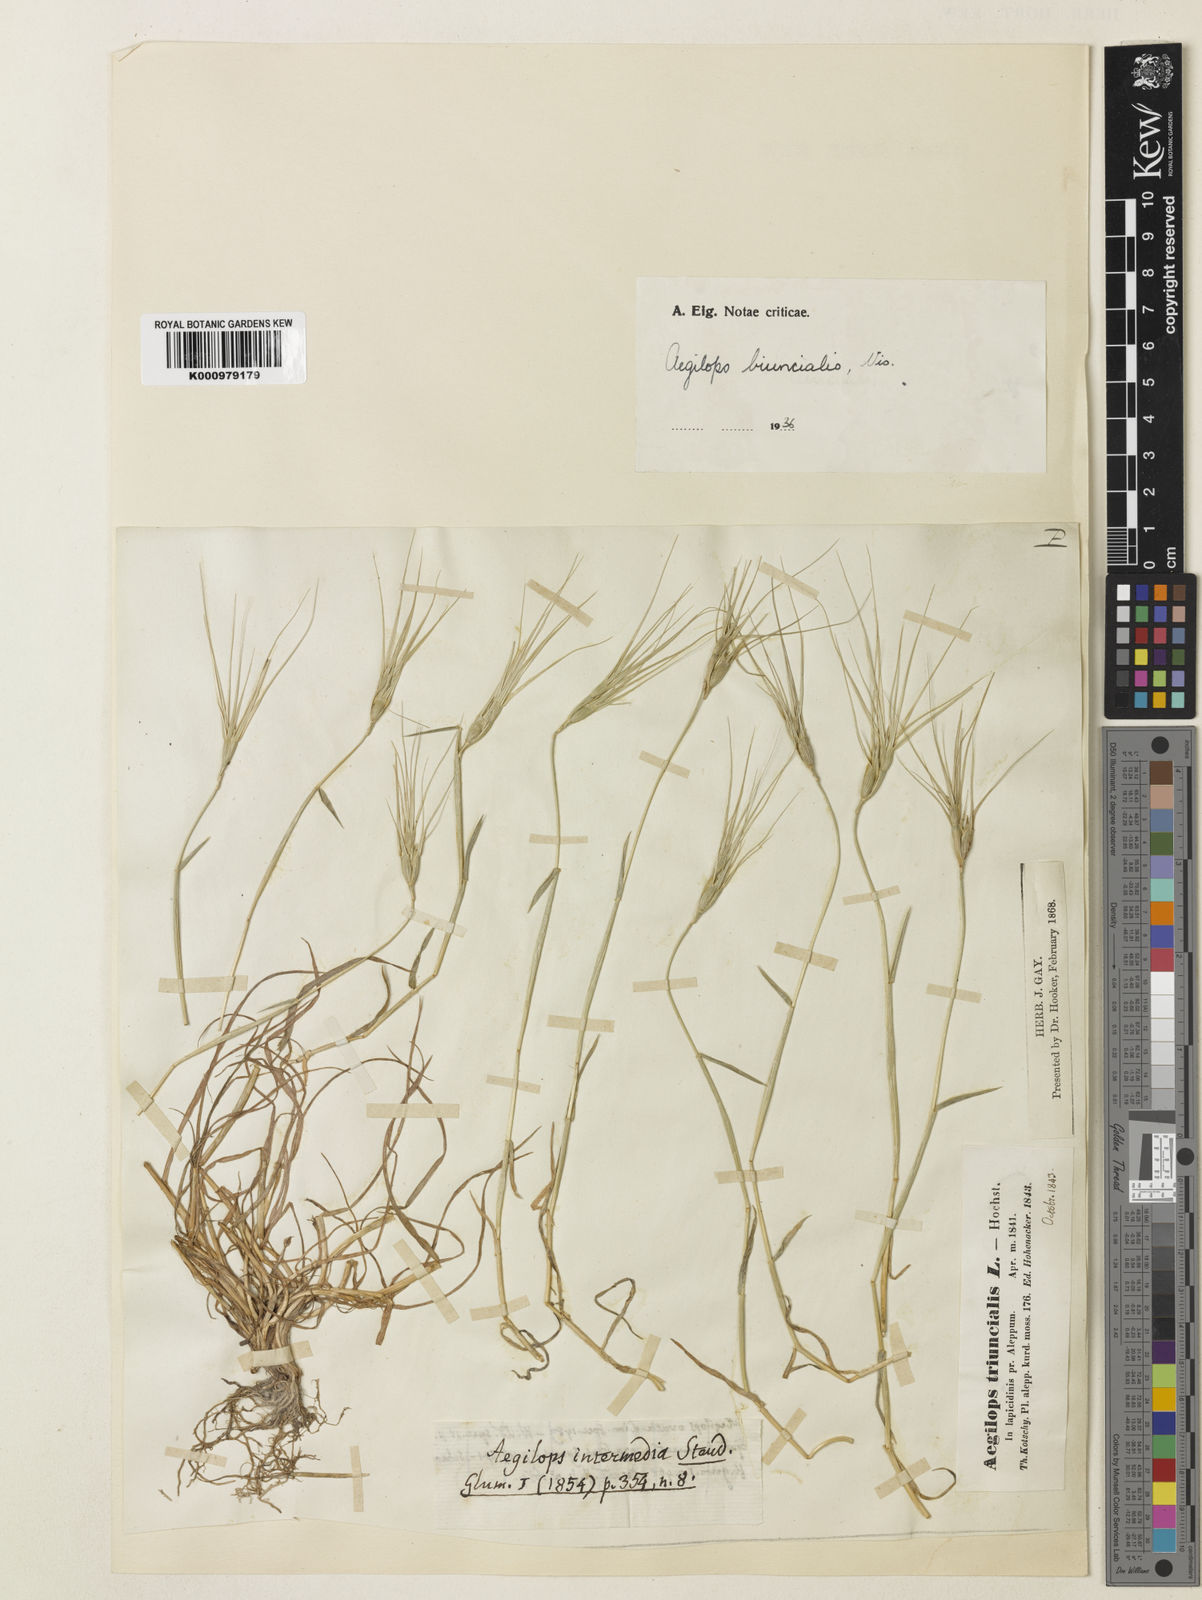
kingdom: Plantae
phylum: Tracheophyta
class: Liliopsida
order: Poales
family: Poaceae
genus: Aegilops
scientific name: Aegilops biuncialis
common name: Mediterranean aegilops
